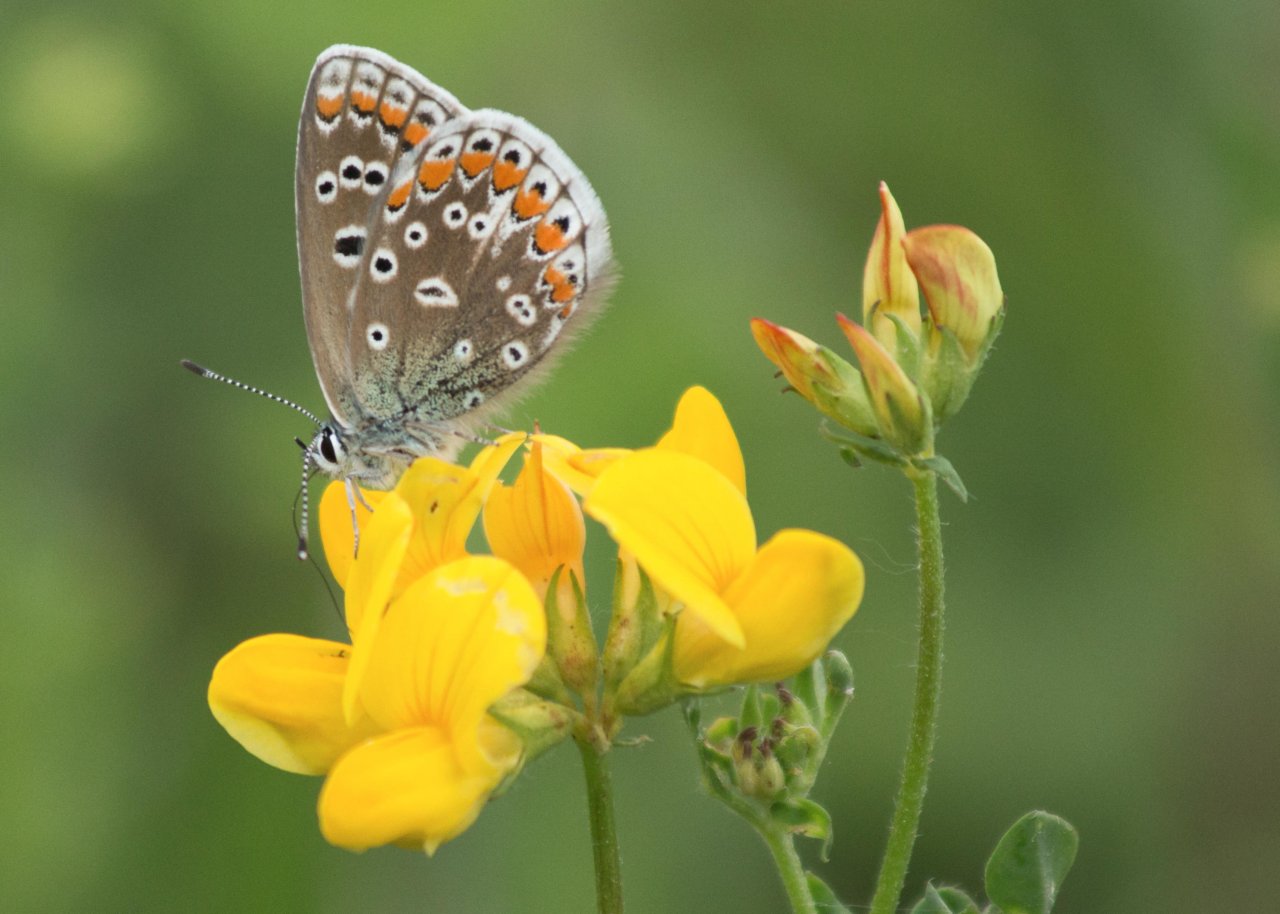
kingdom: Animalia
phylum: Arthropoda
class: Insecta
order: Lepidoptera
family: Lycaenidae
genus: Polyommatus
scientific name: Polyommatus icarus
